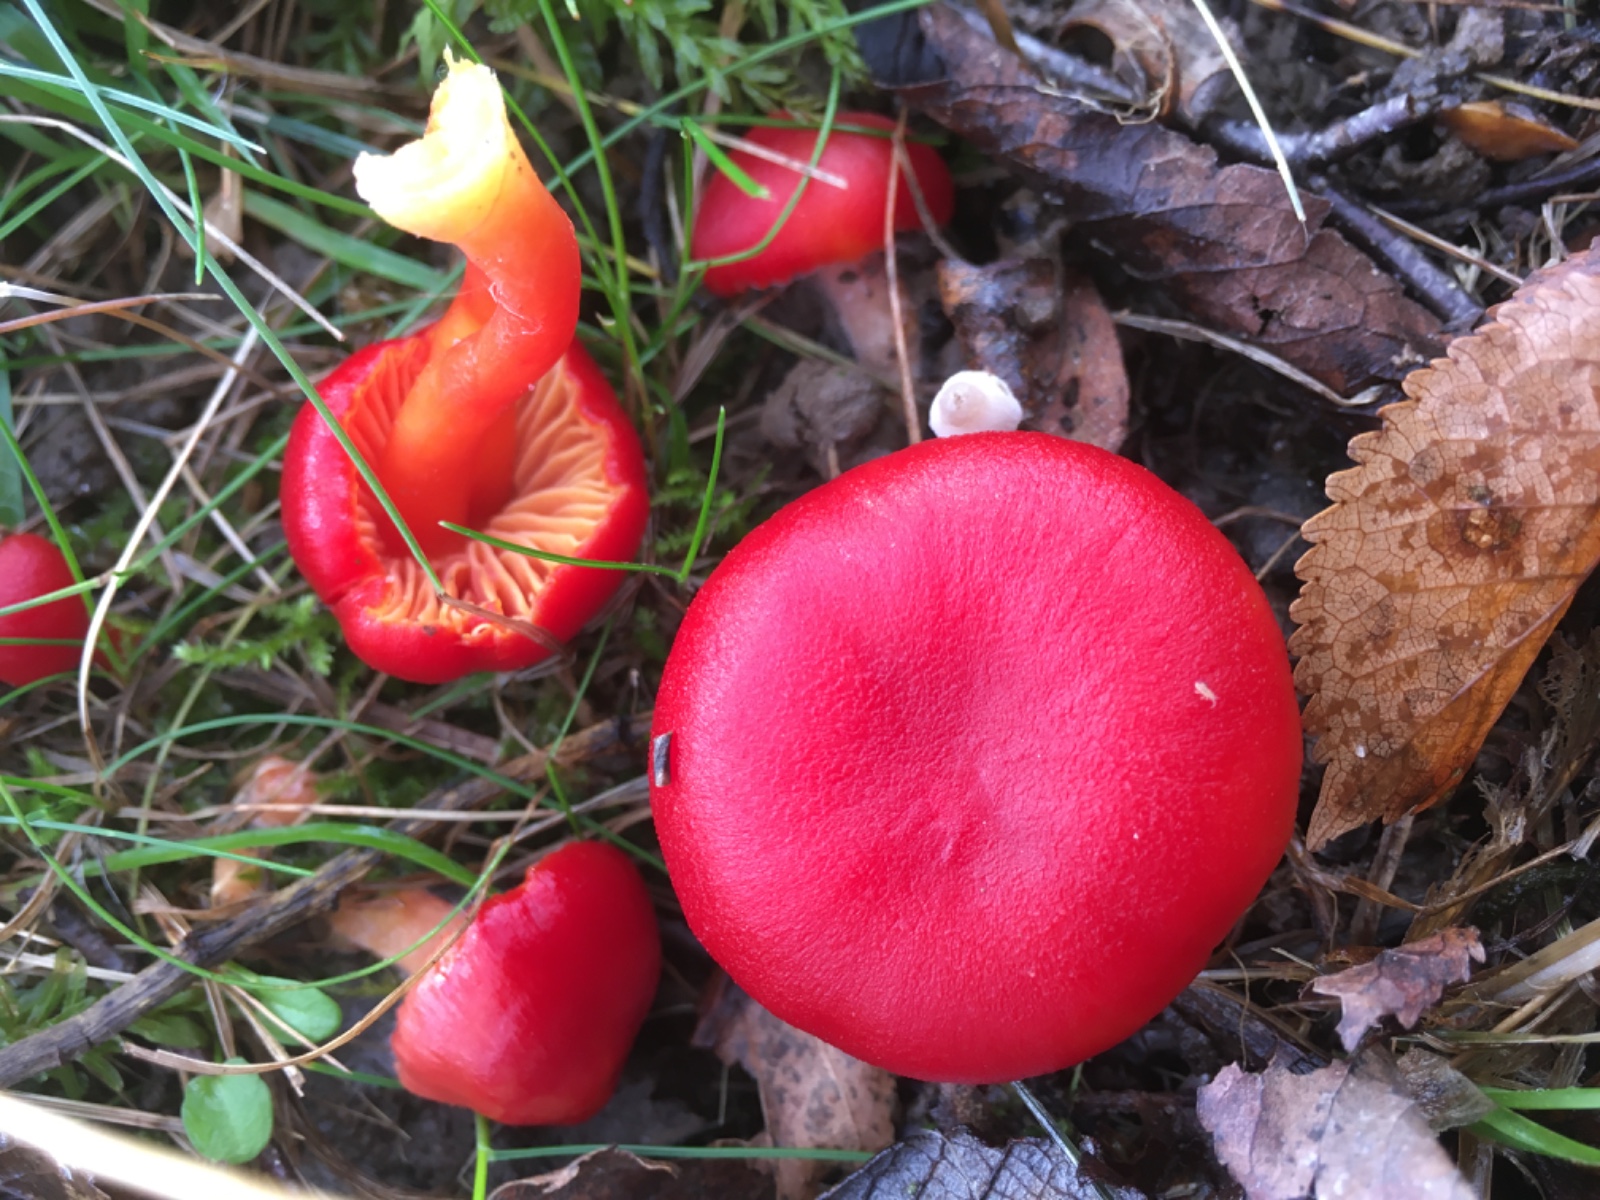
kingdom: Fungi
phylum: Basidiomycota
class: Agaricomycetes
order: Agaricales
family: Hygrophoraceae
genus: Hygrocybe
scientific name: Hygrocybe coccinea
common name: cinnober-vokshat
